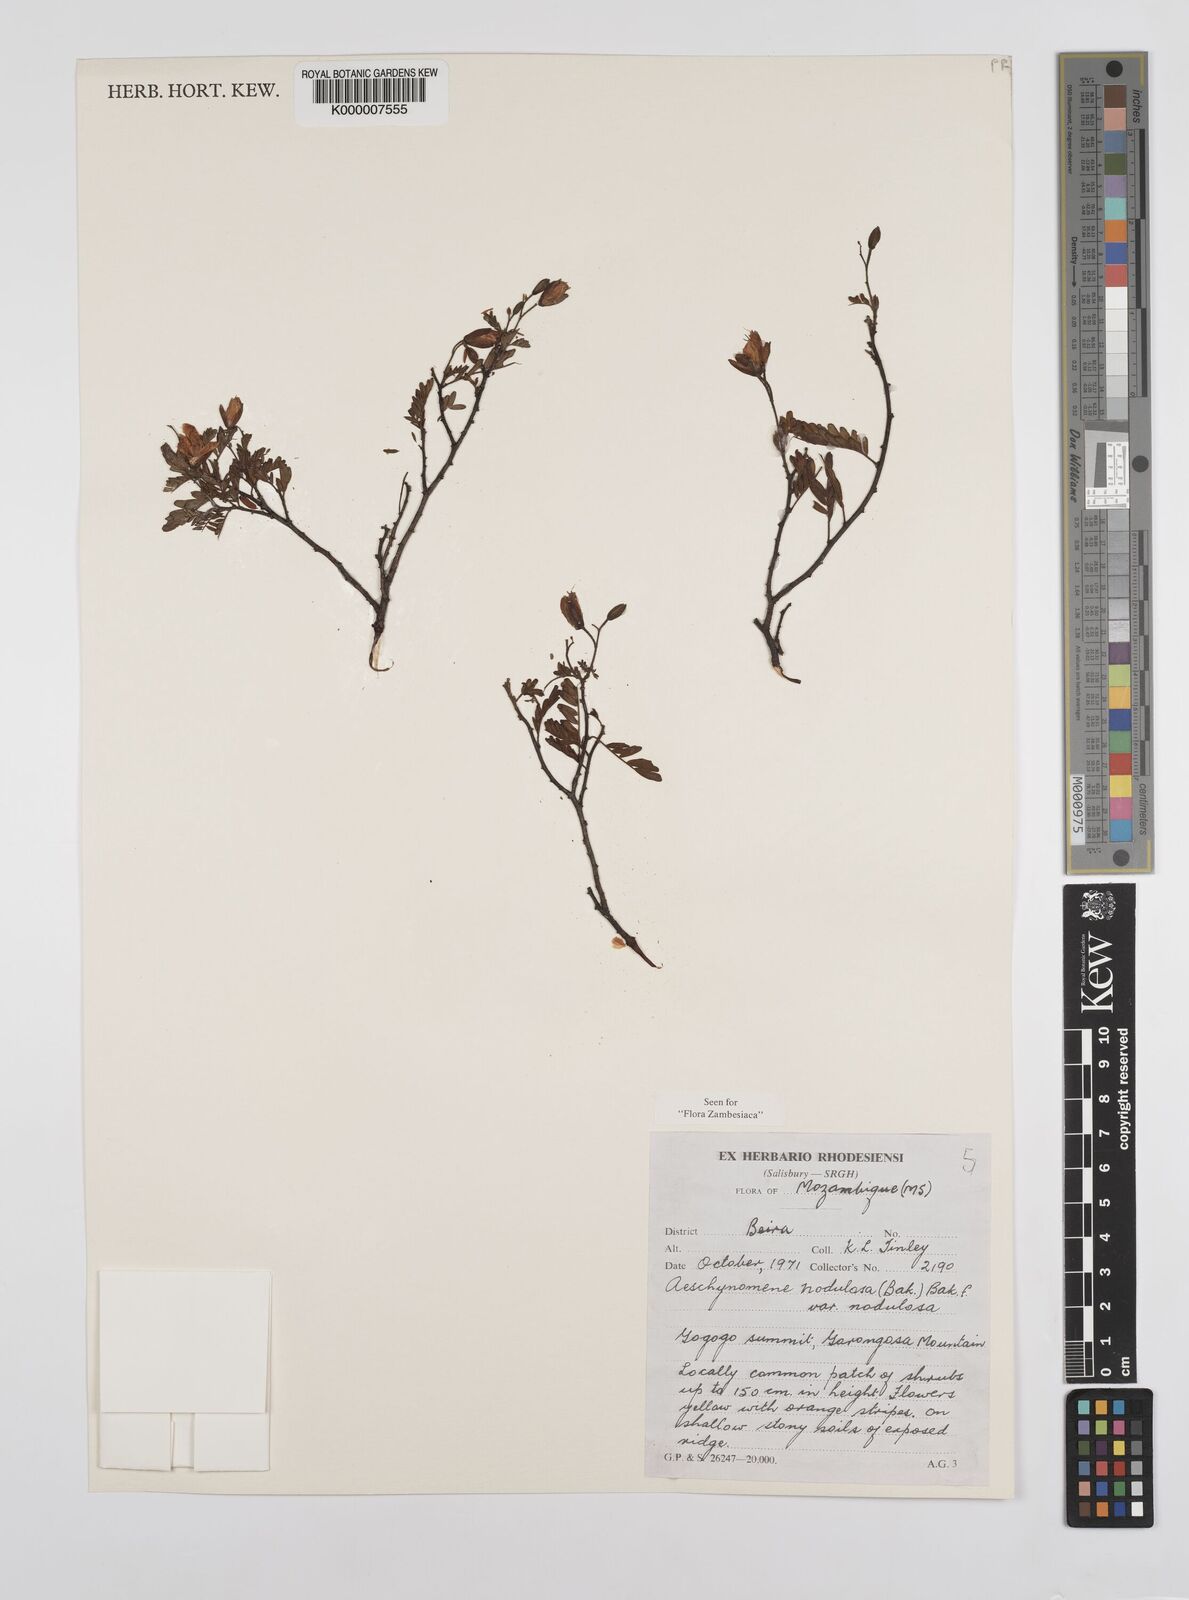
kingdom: Plantae
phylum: Tracheophyta
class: Magnoliopsida
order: Fabales
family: Fabaceae
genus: Aeschynomene
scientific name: Aeschynomene nodulosa
